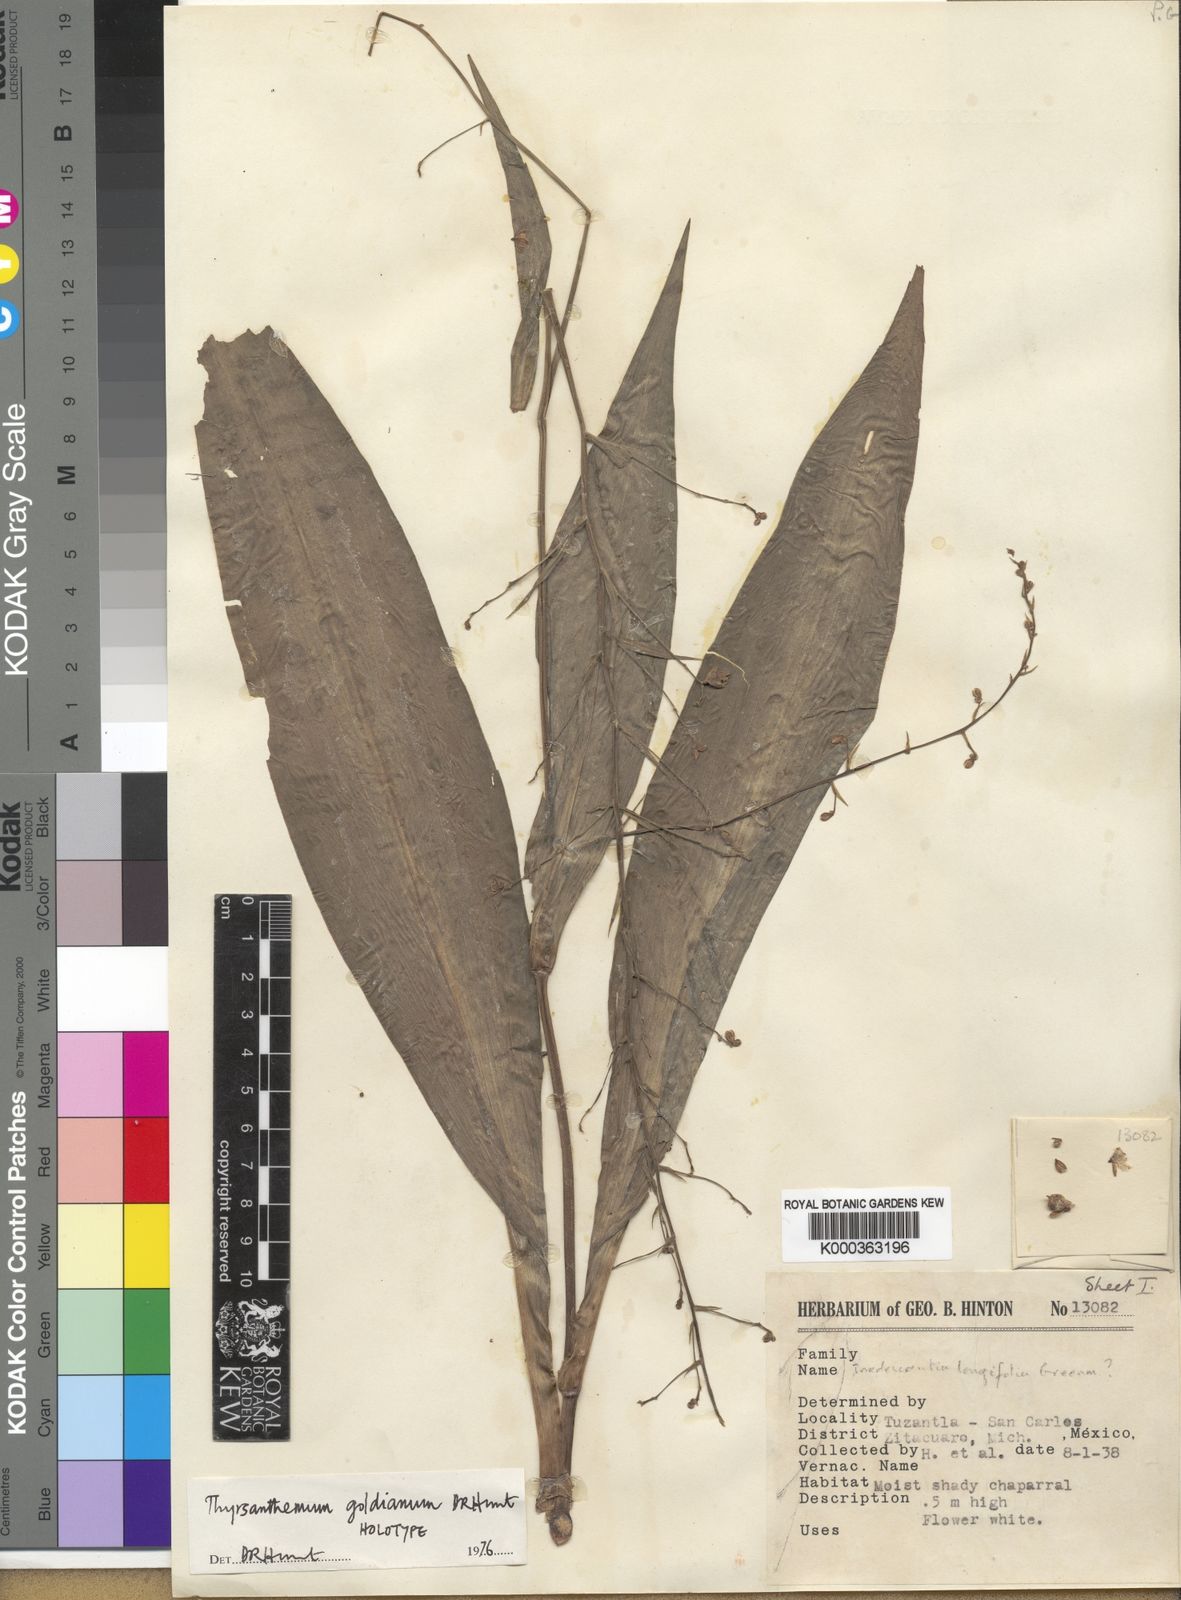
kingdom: Plantae
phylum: Tracheophyta
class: Liliopsida
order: Commelinales
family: Commelinaceae
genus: Thyrsanthemum
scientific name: Thyrsanthemum goldianum
